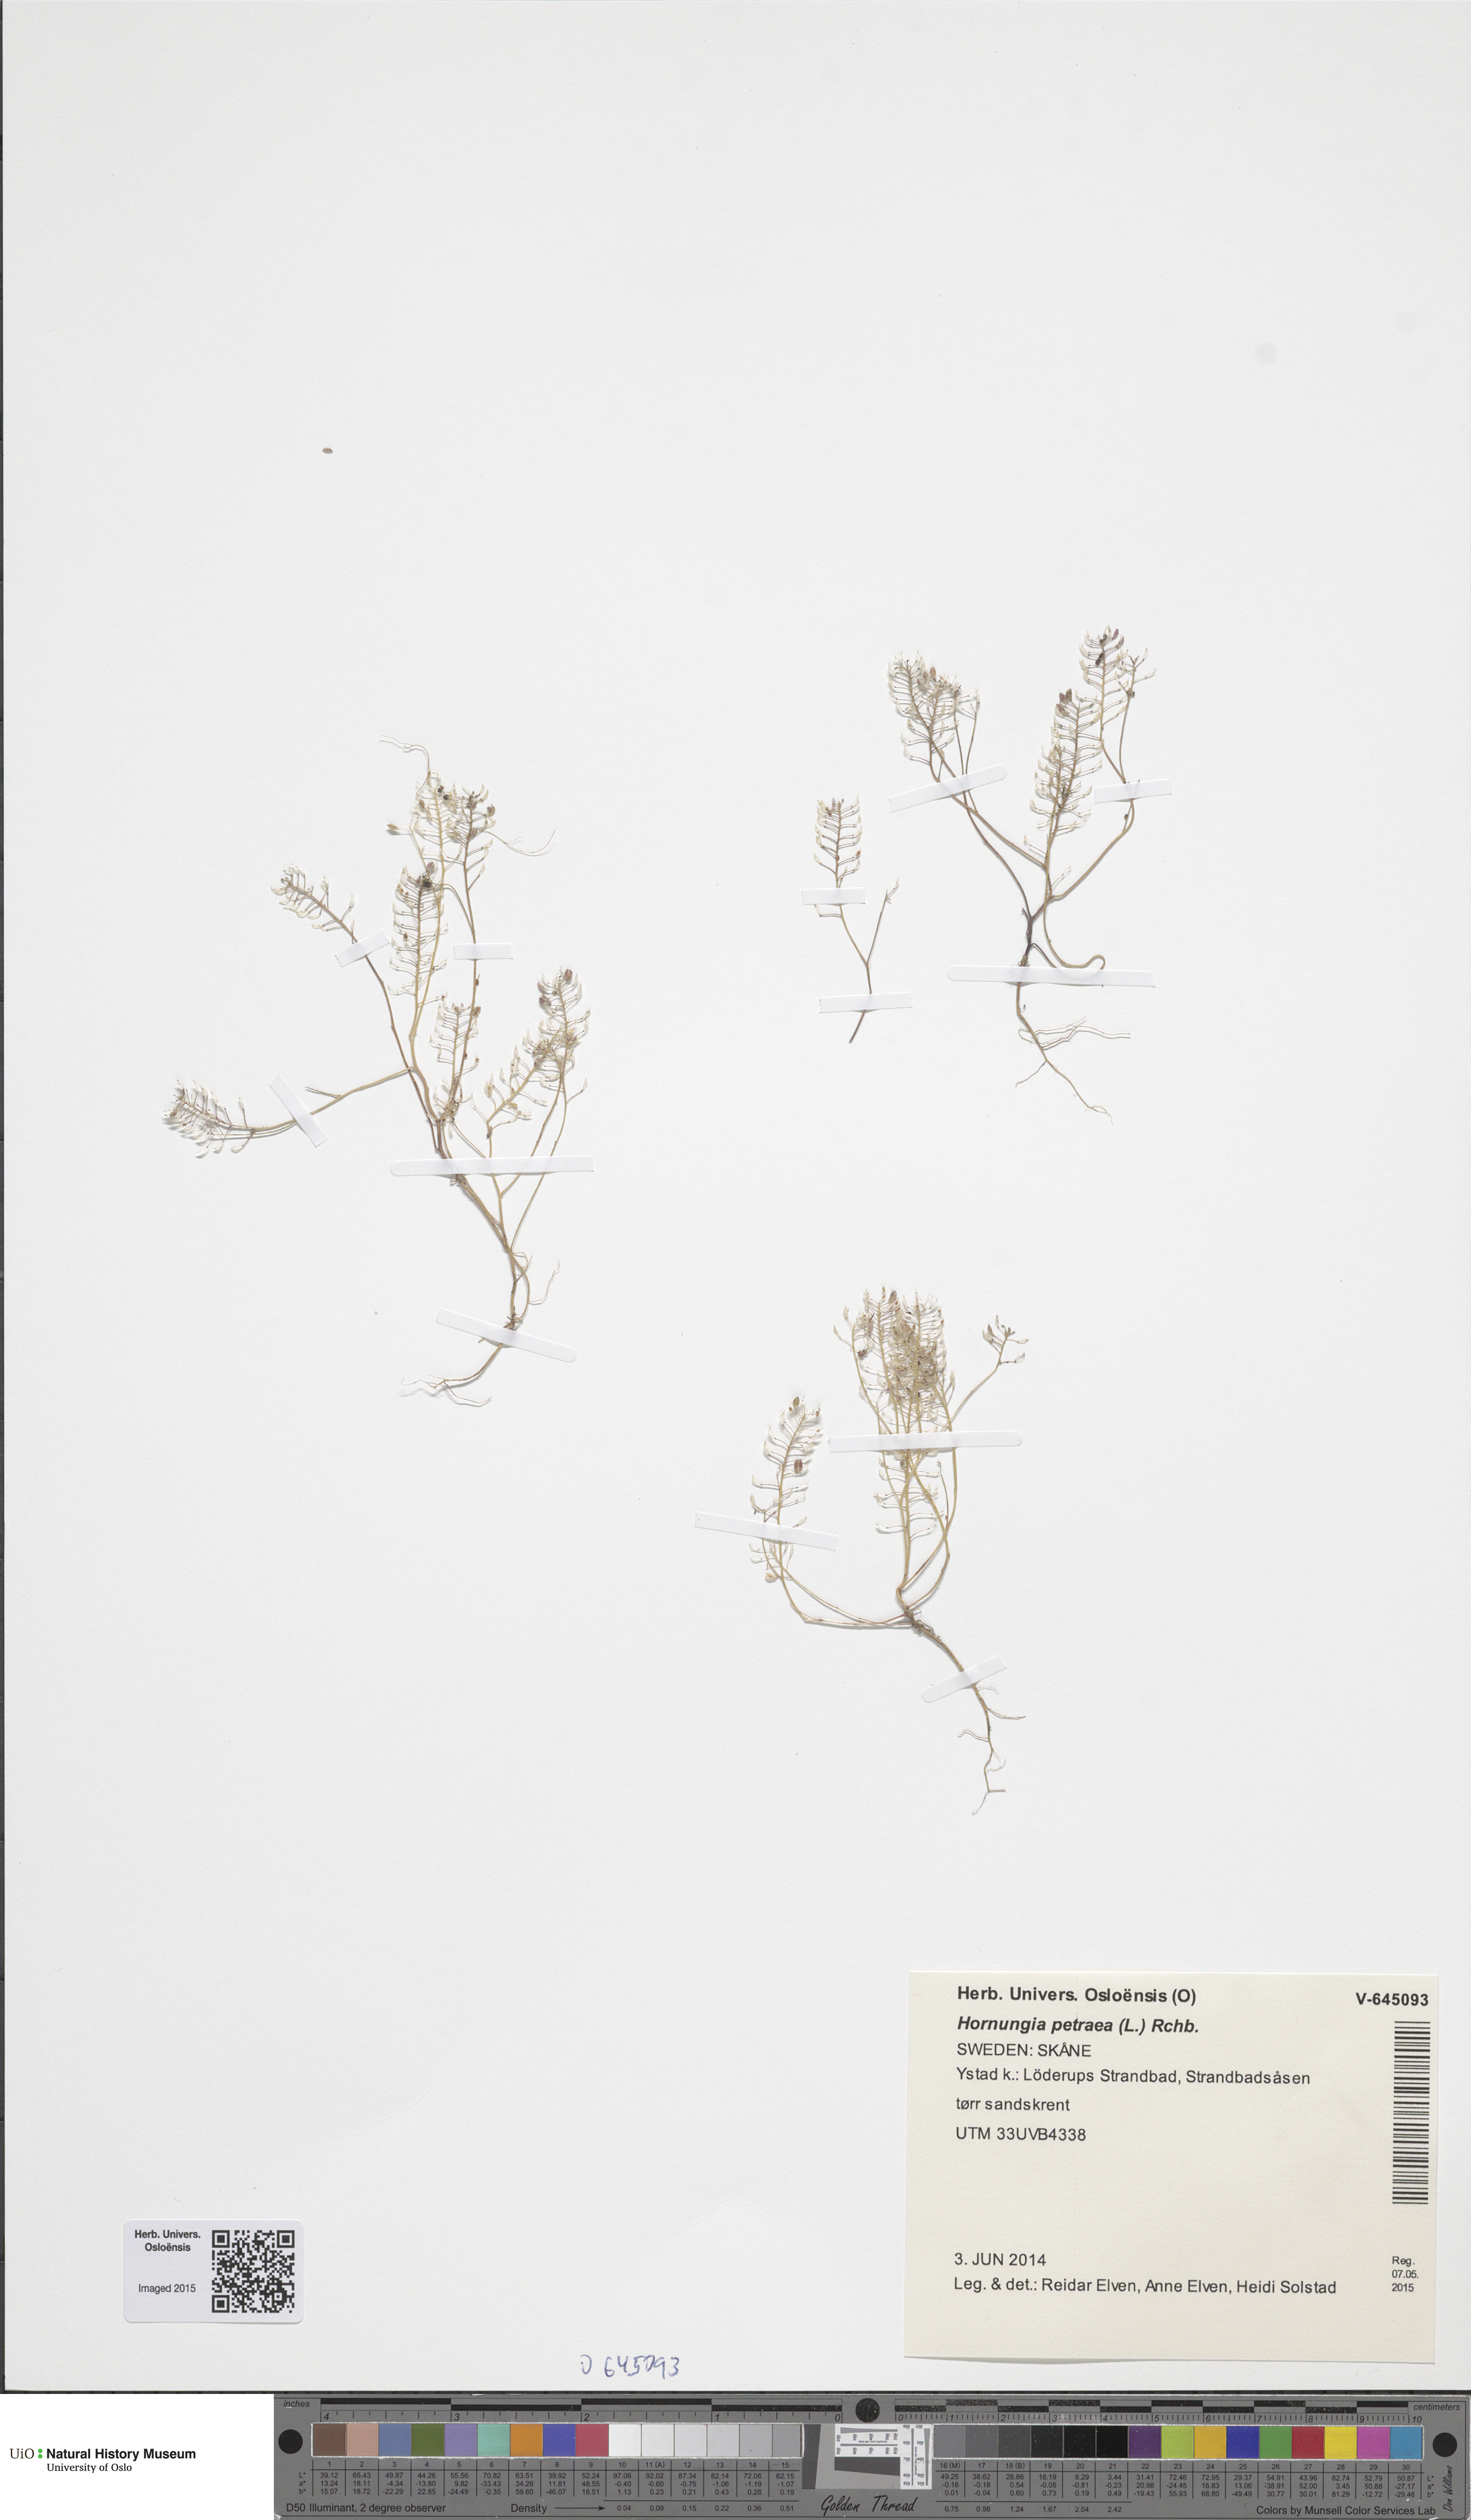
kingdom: Plantae
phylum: Tracheophyta
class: Magnoliopsida
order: Brassicales
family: Brassicaceae
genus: Hornungia
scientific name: Hornungia petraea
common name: Hutchinsia
